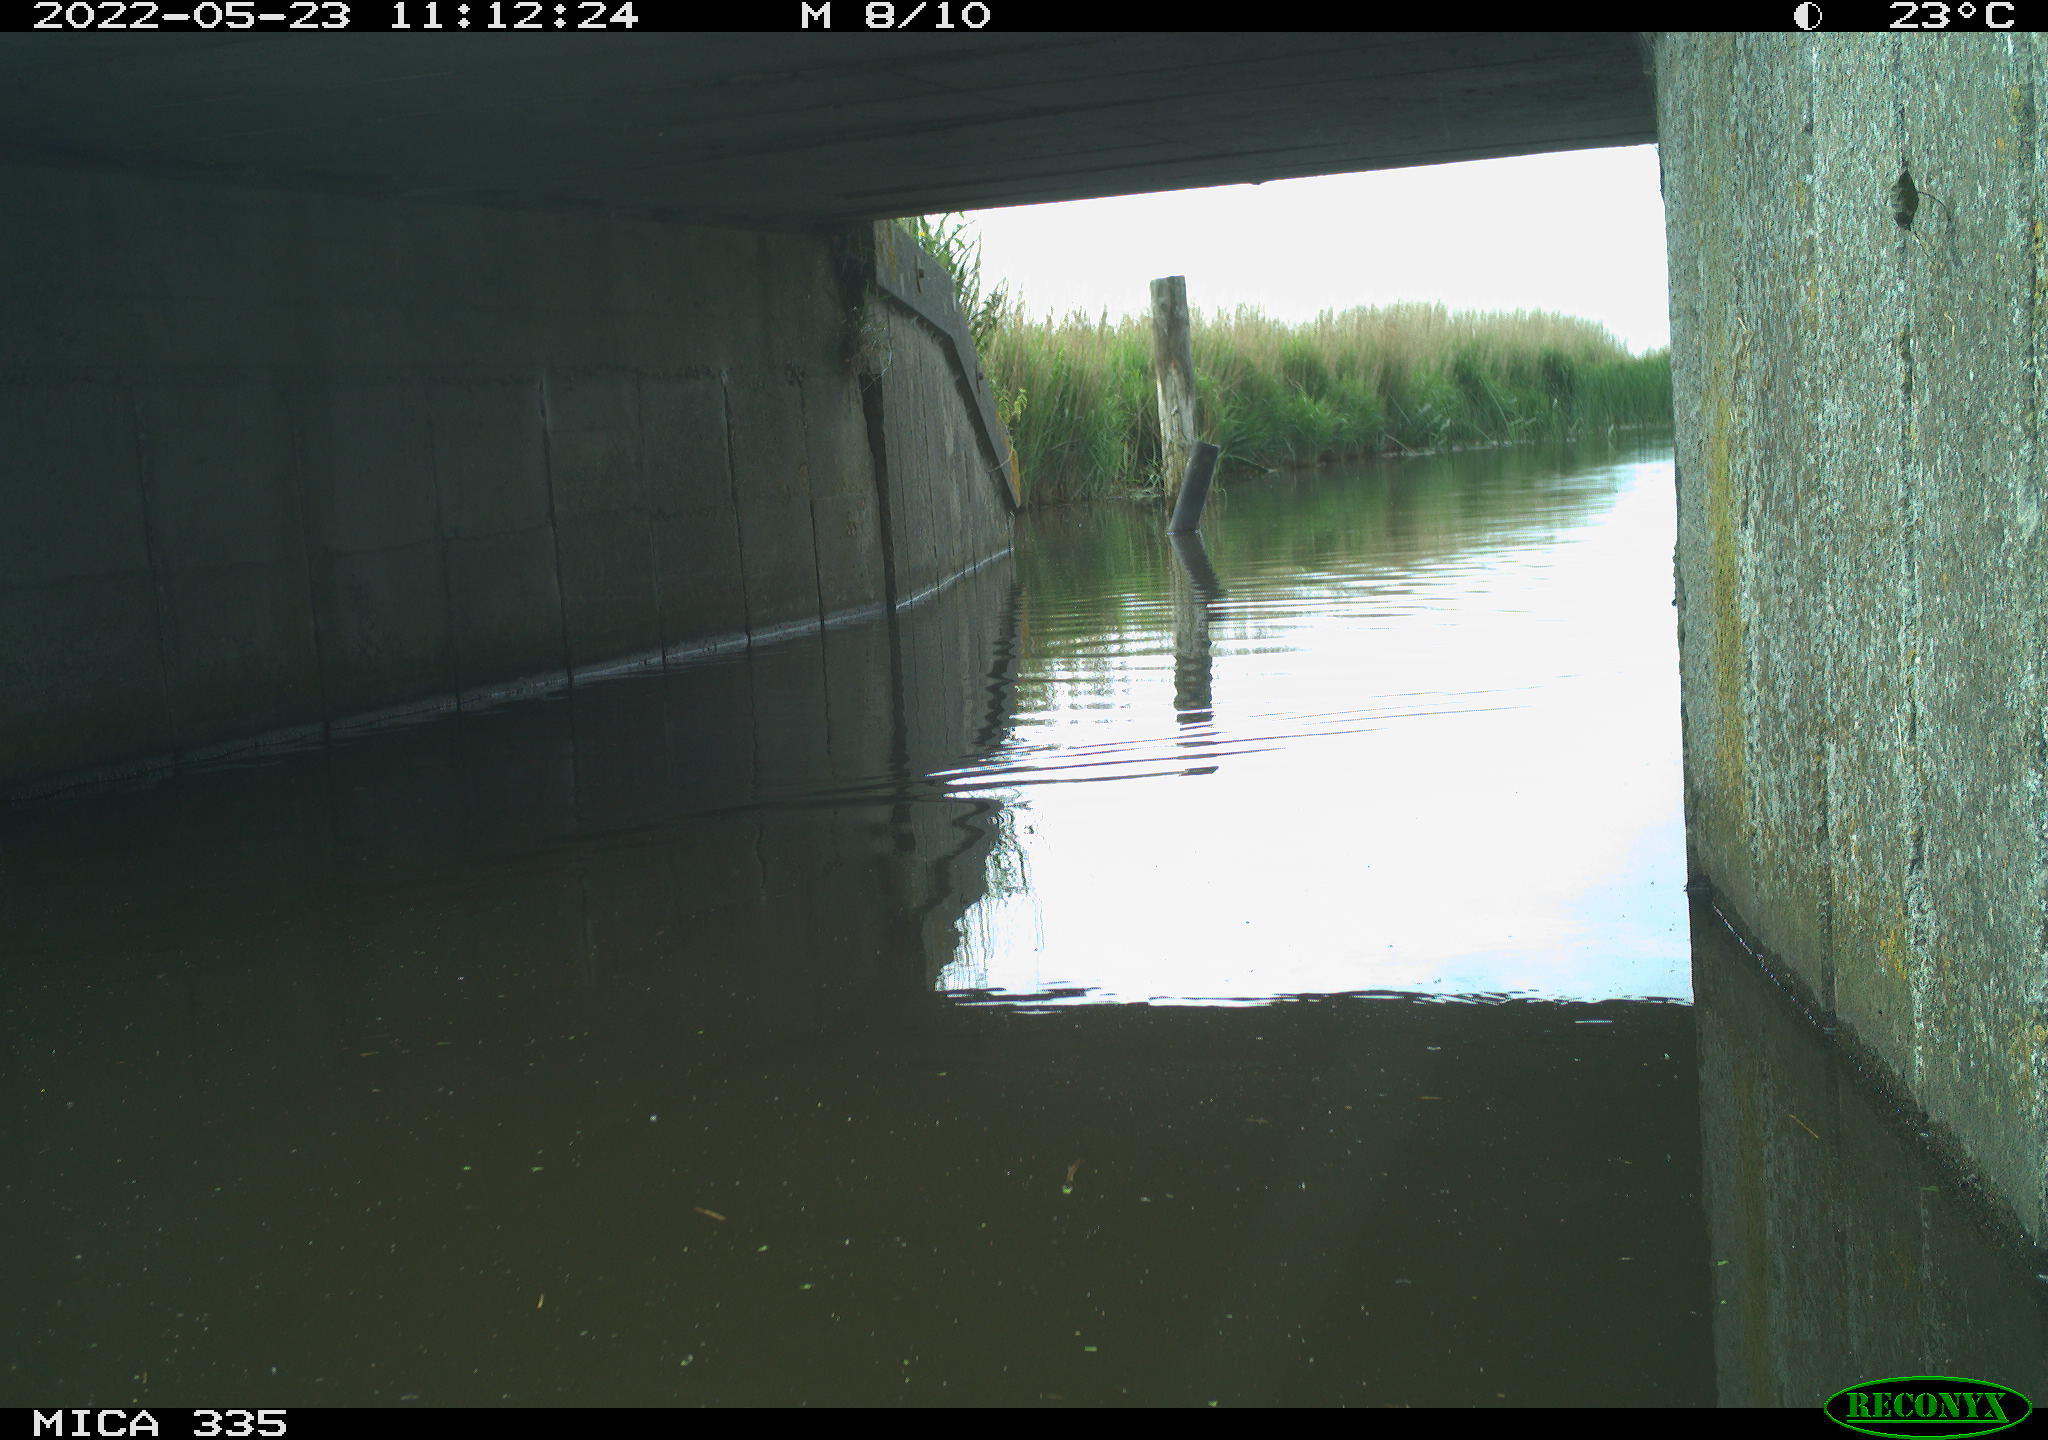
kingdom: Animalia
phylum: Chordata
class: Aves
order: Anseriformes
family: Anatidae
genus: Anas
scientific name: Anas platyrhynchos
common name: Mallard
